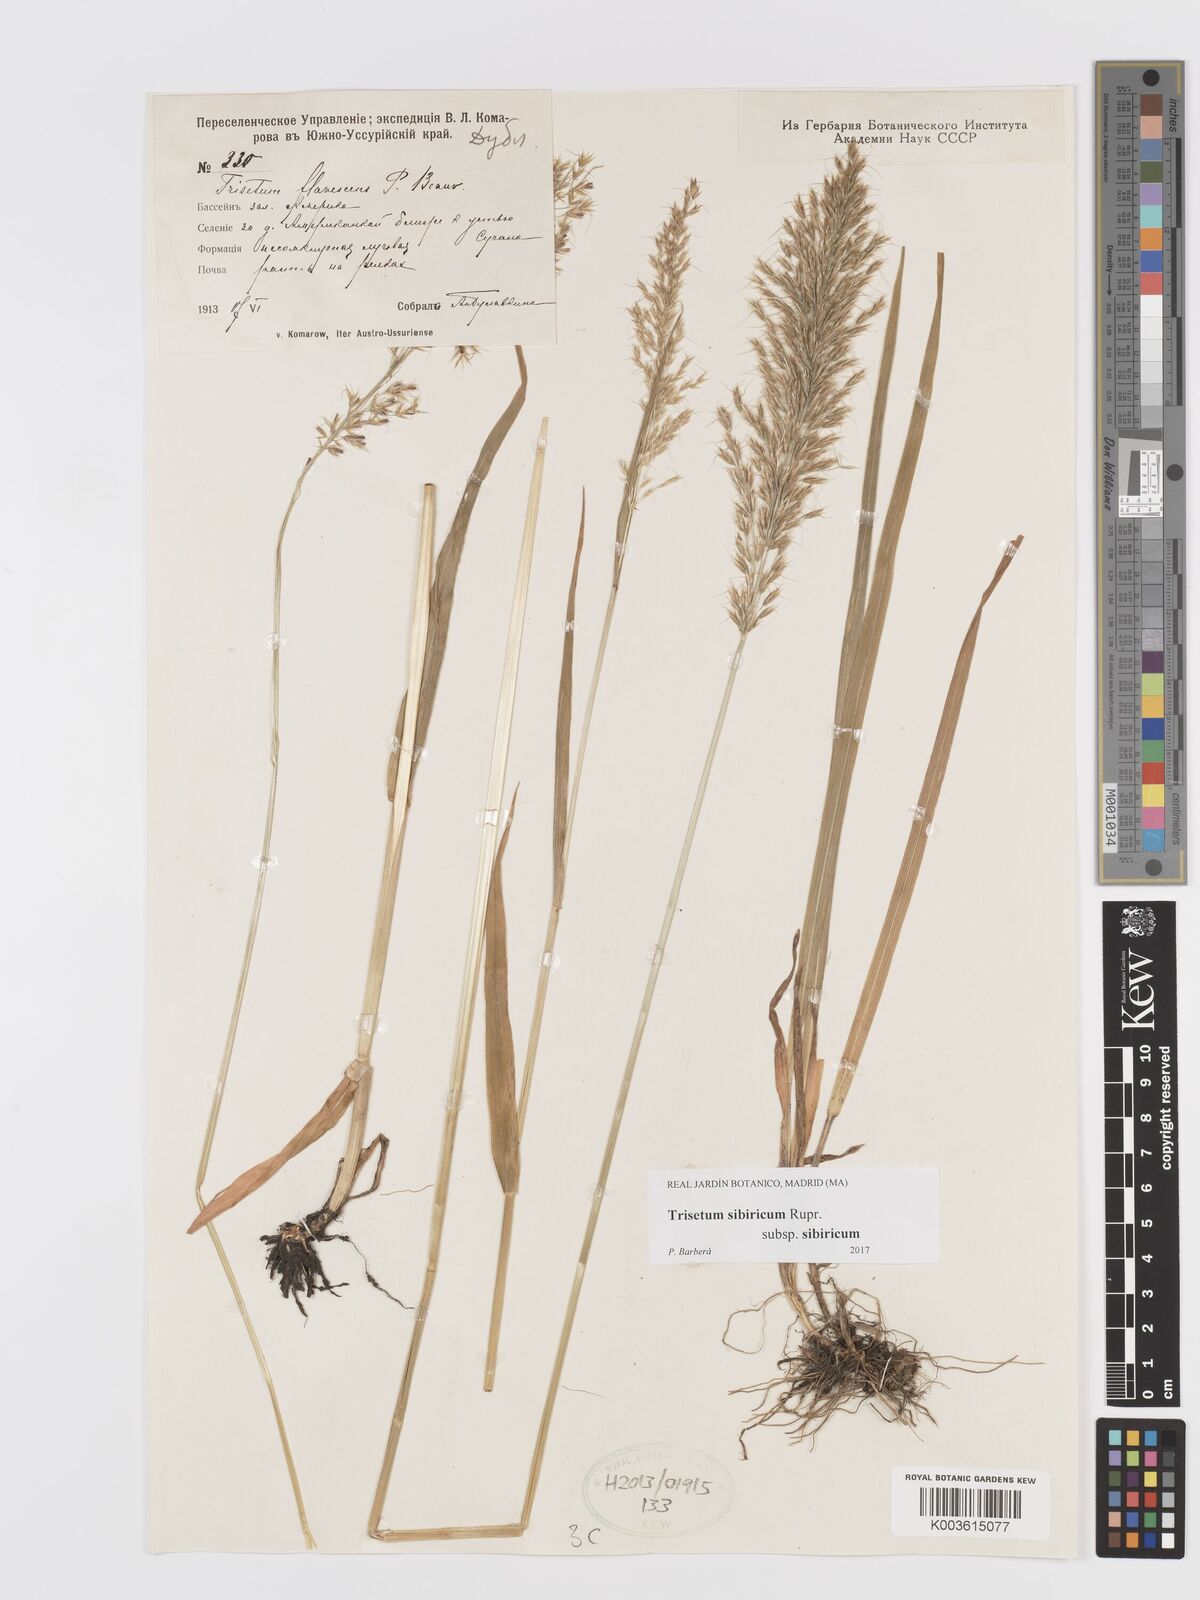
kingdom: Plantae
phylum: Tracheophyta
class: Liliopsida
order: Poales
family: Poaceae
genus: Sibirotrisetum
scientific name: Sibirotrisetum sibiricum
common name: Siberian false oat
